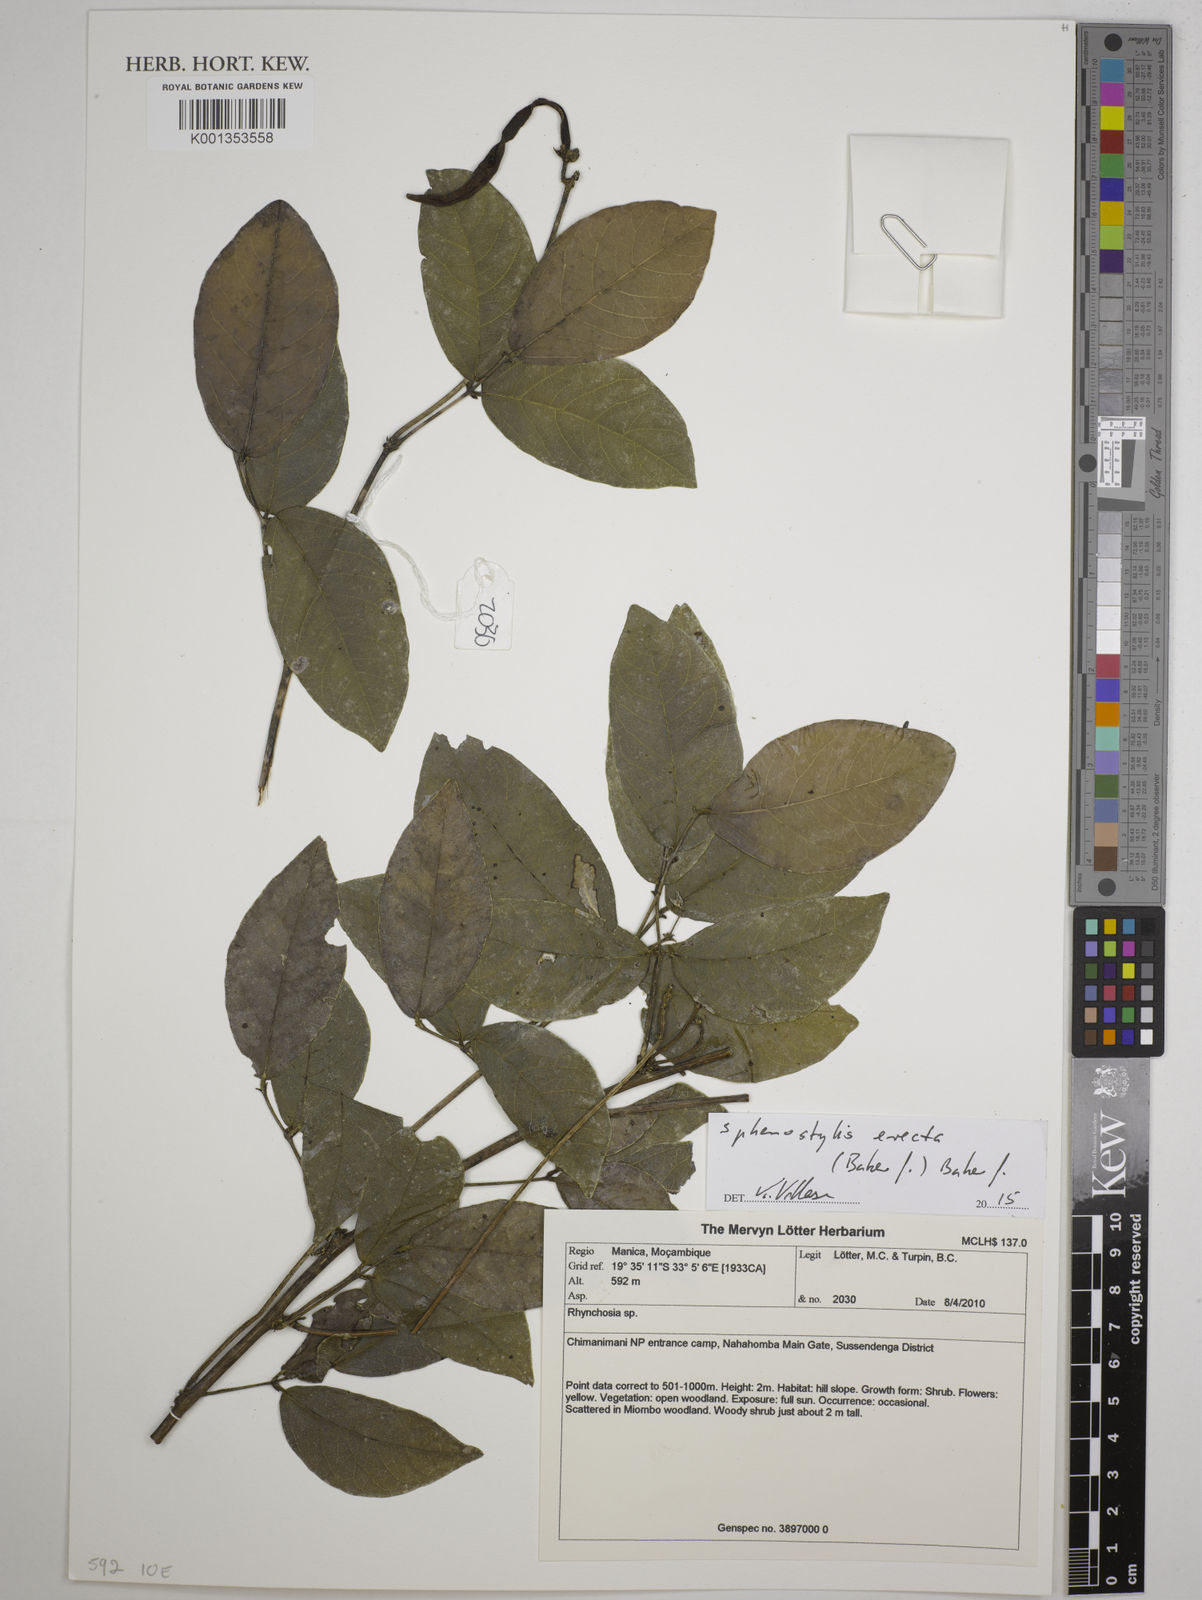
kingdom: Plantae
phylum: Tracheophyta
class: Magnoliopsida
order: Fabales
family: Fabaceae
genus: Sphenostylis
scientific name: Sphenostylis erecta
